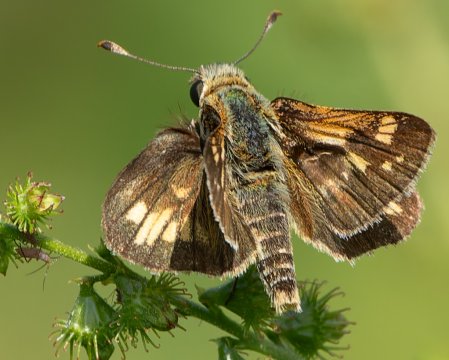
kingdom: Animalia
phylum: Arthropoda
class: Insecta
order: Lepidoptera
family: Hesperiidae
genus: Polites
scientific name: Polites coras
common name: Peck's Skipper
